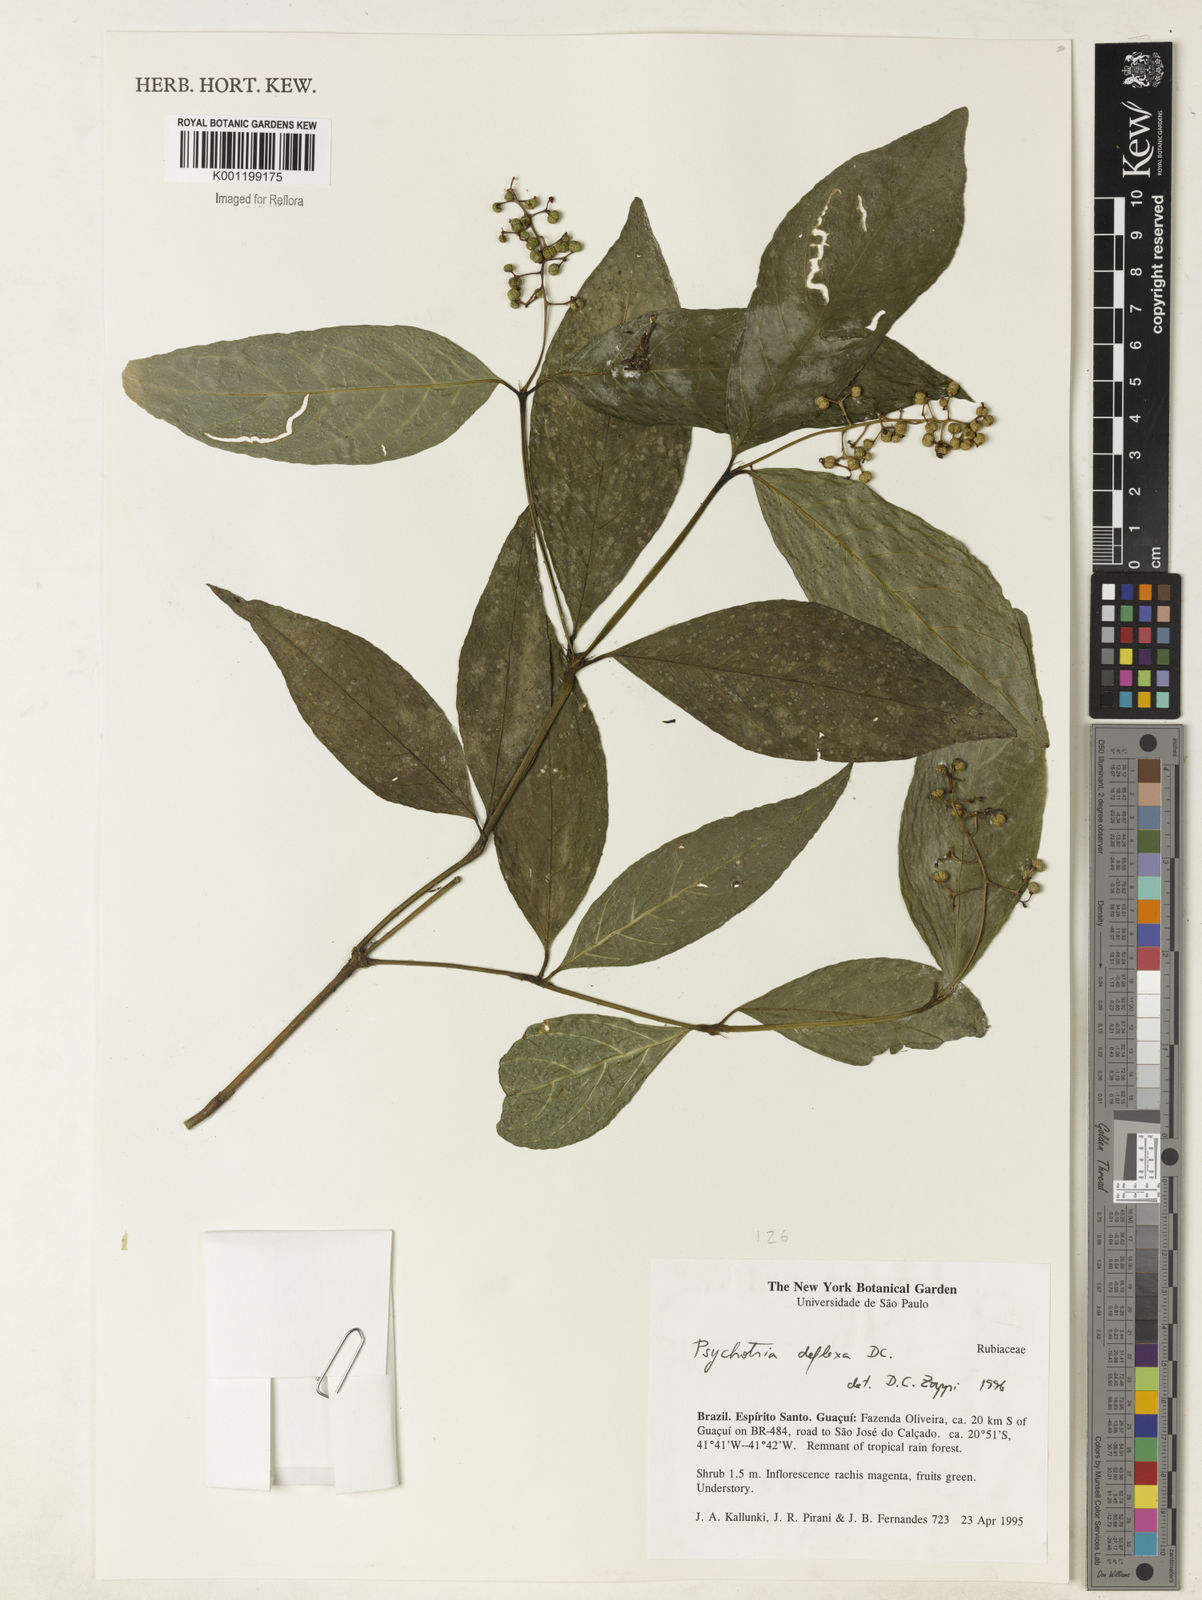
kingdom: Plantae
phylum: Tracheophyta
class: Magnoliopsida
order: Gentianales
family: Rubiaceae
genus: Palicourea
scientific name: Palicourea deflexa
